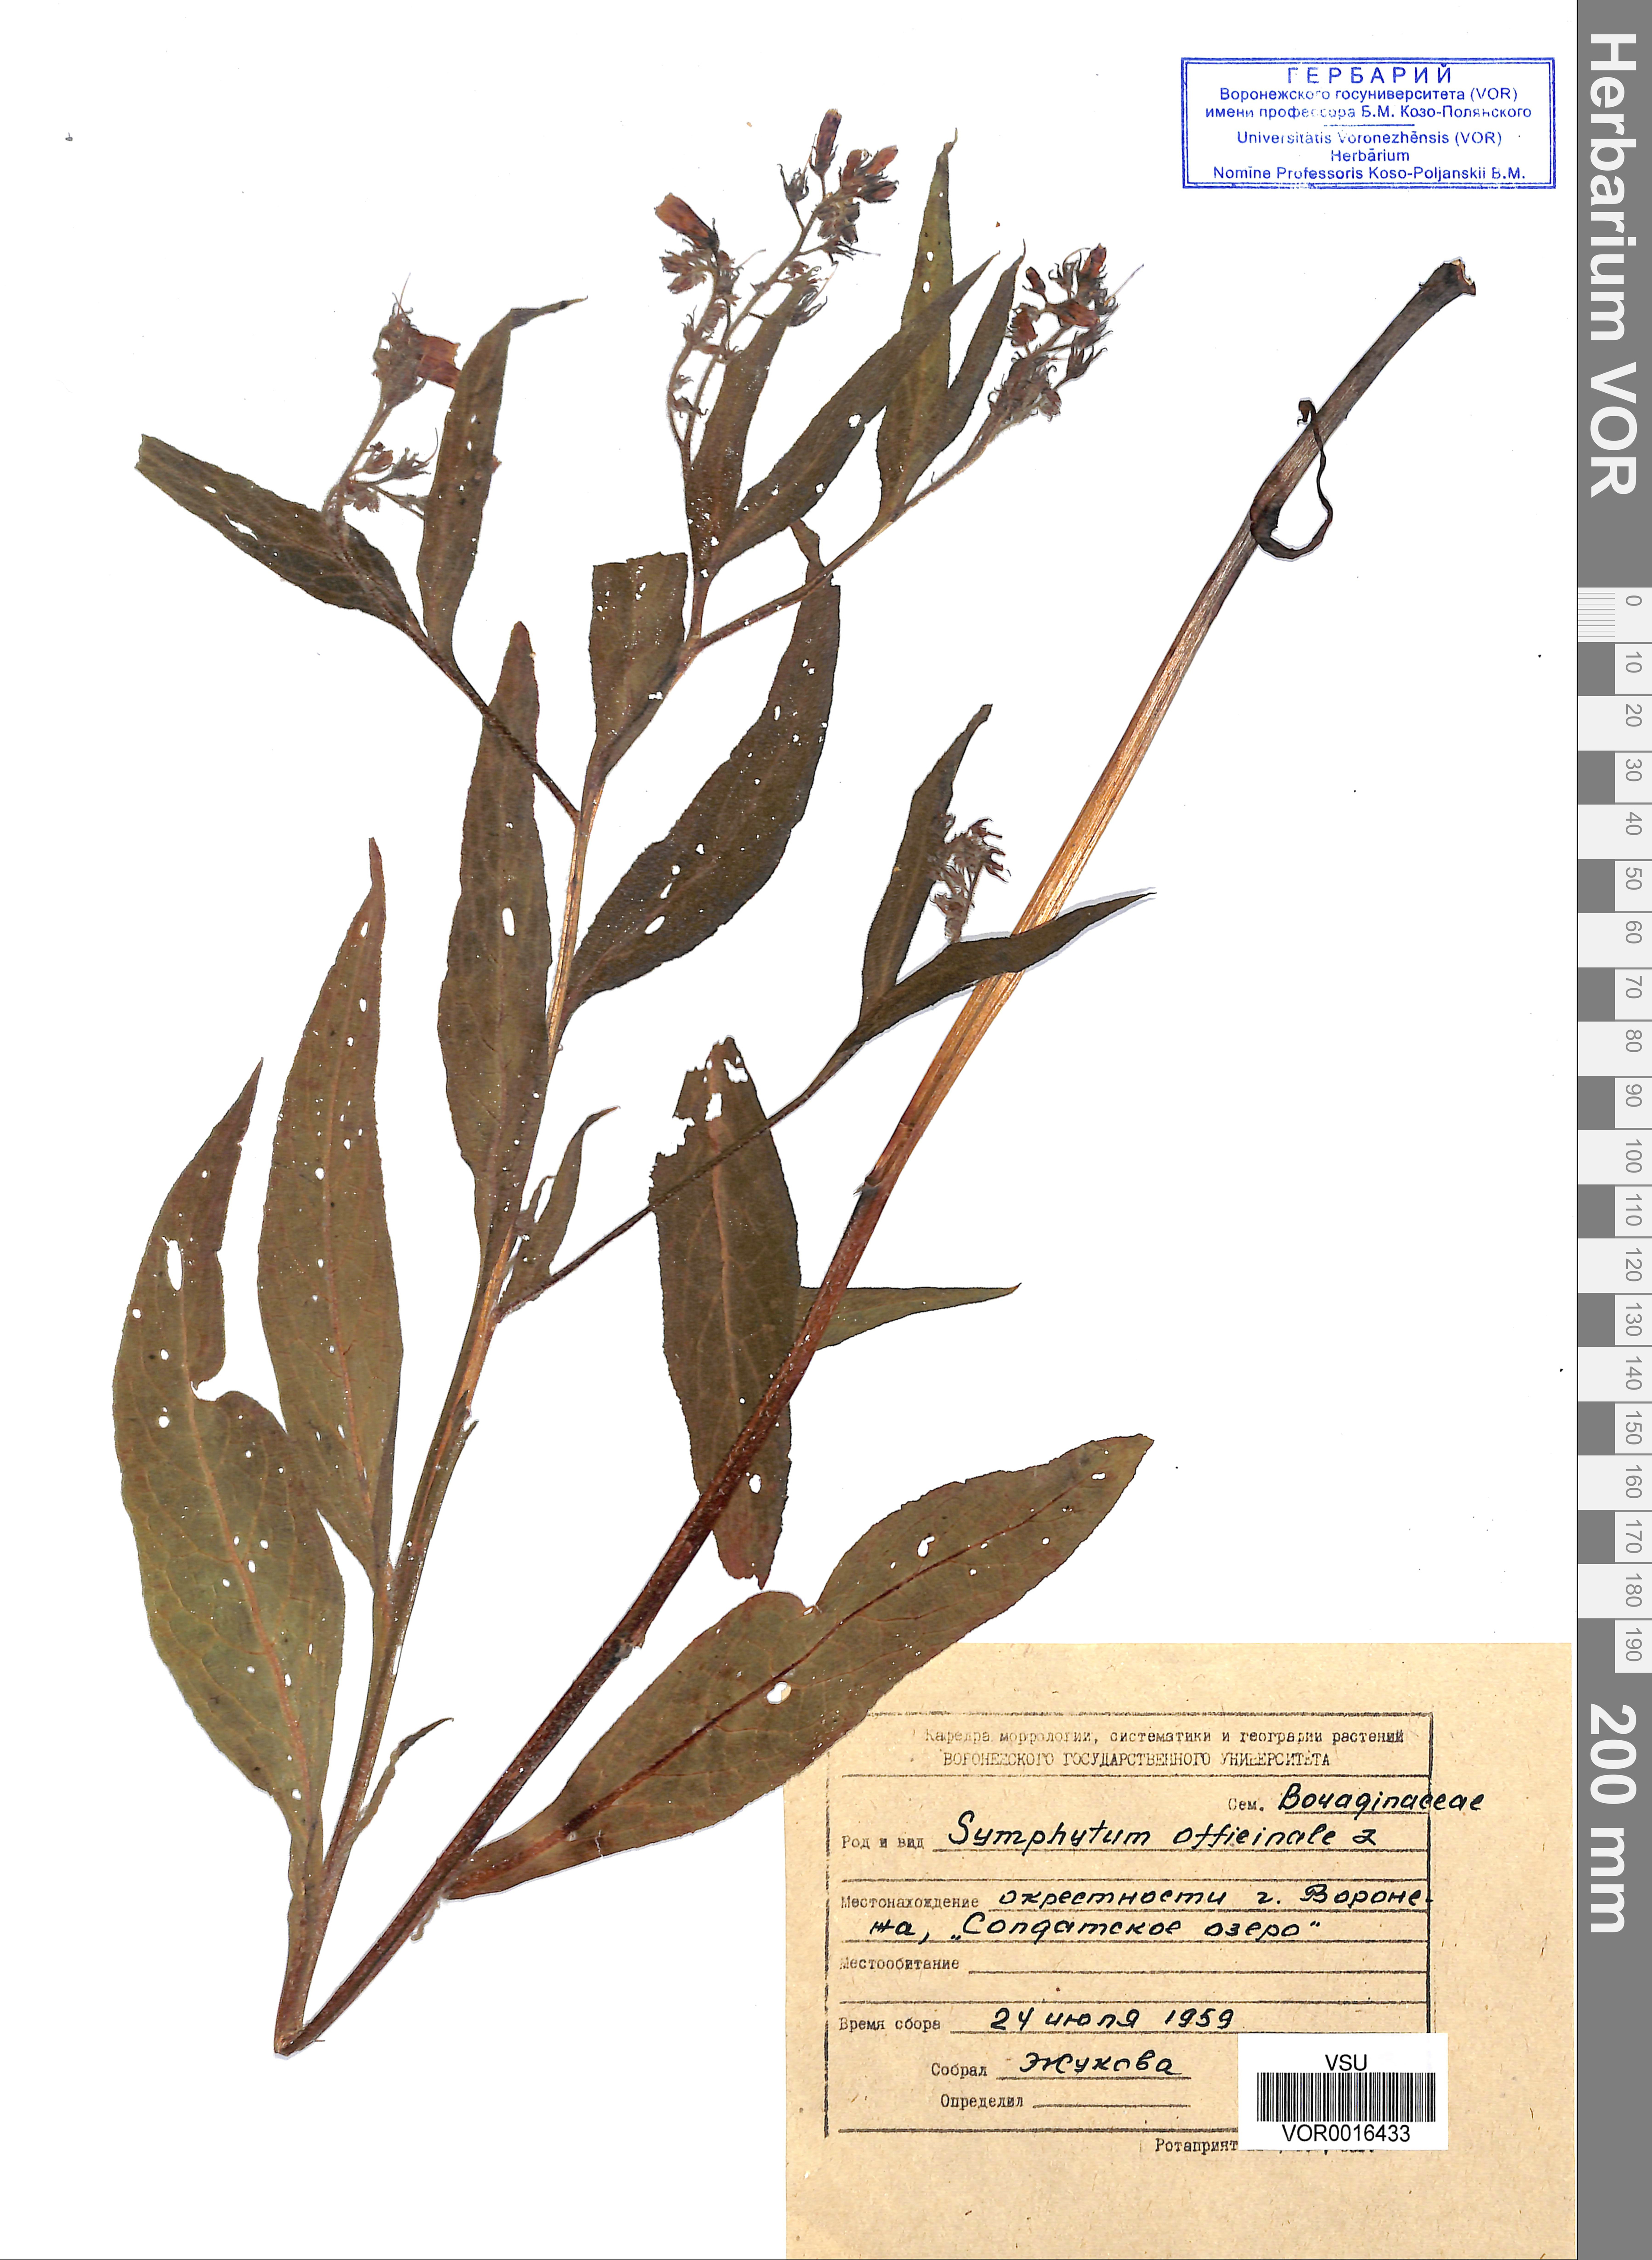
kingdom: Plantae
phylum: Tracheophyta
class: Magnoliopsida
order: Boraginales
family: Boraginaceae
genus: Symphytum
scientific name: Symphytum officinale
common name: Common comfrey
